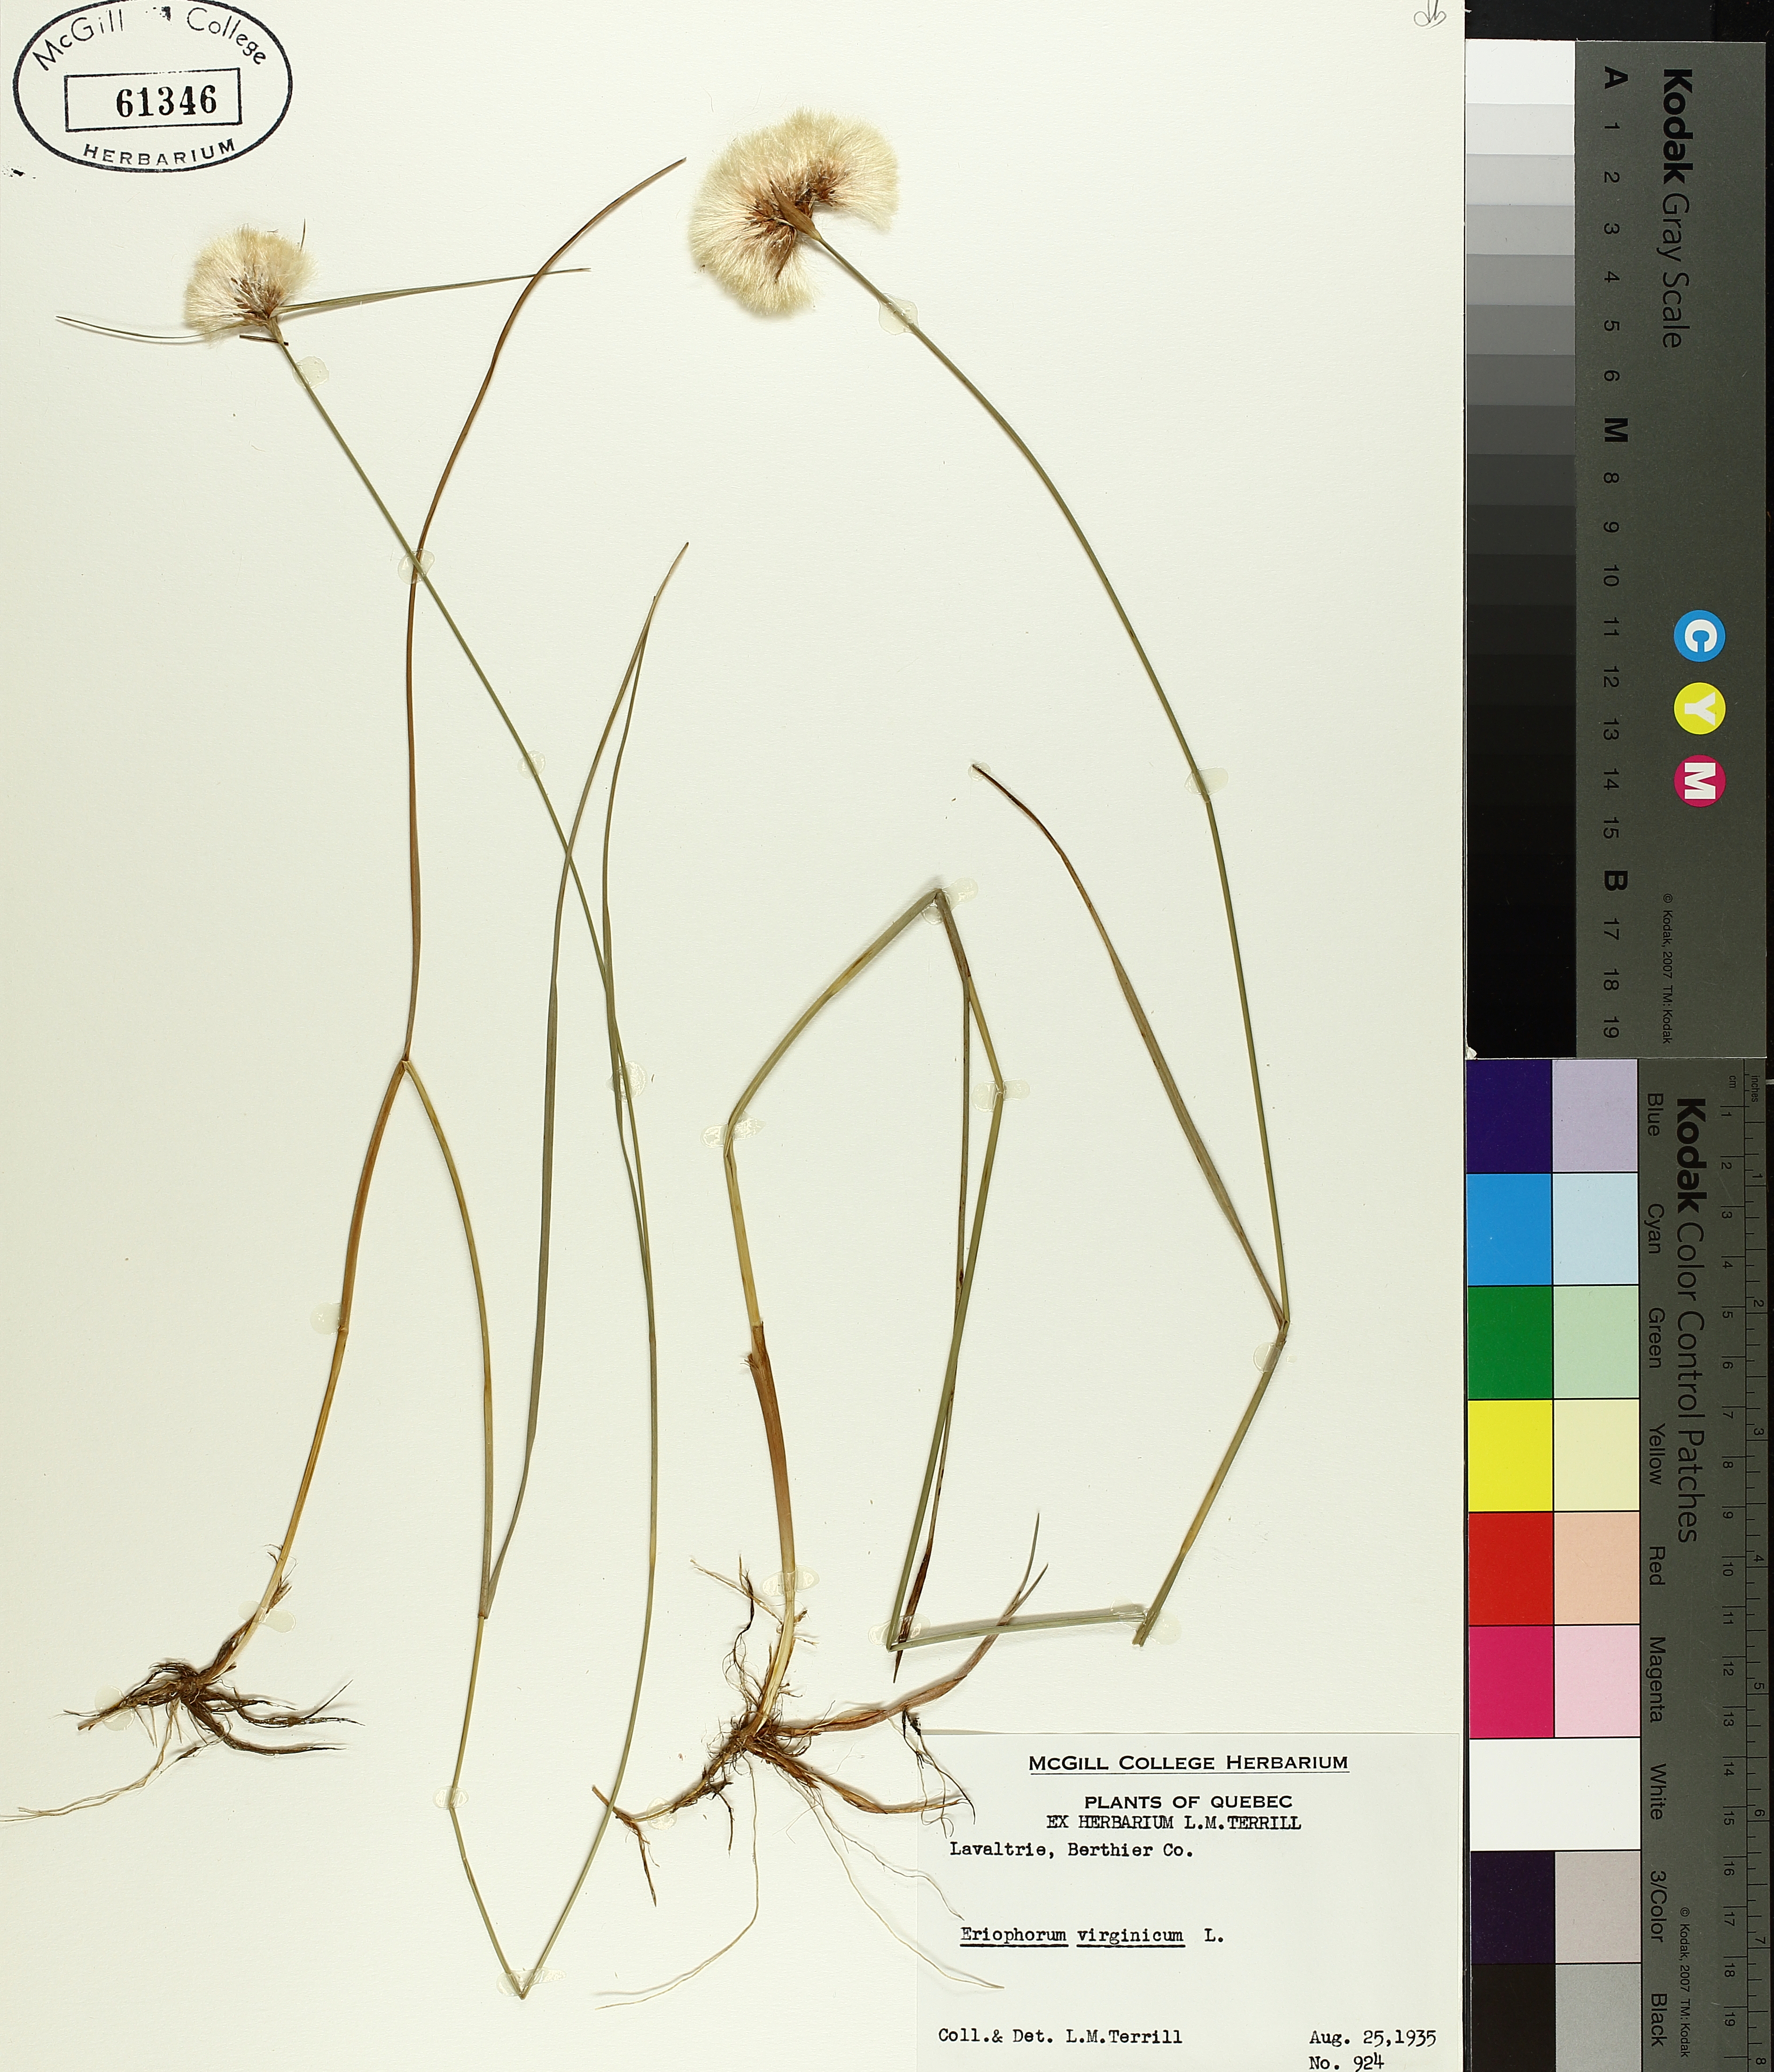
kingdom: Plantae
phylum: Tracheophyta
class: Liliopsida
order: Poales
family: Cyperaceae
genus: Eriophorum
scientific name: Eriophorum virginicum
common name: Tawny cottongrass
